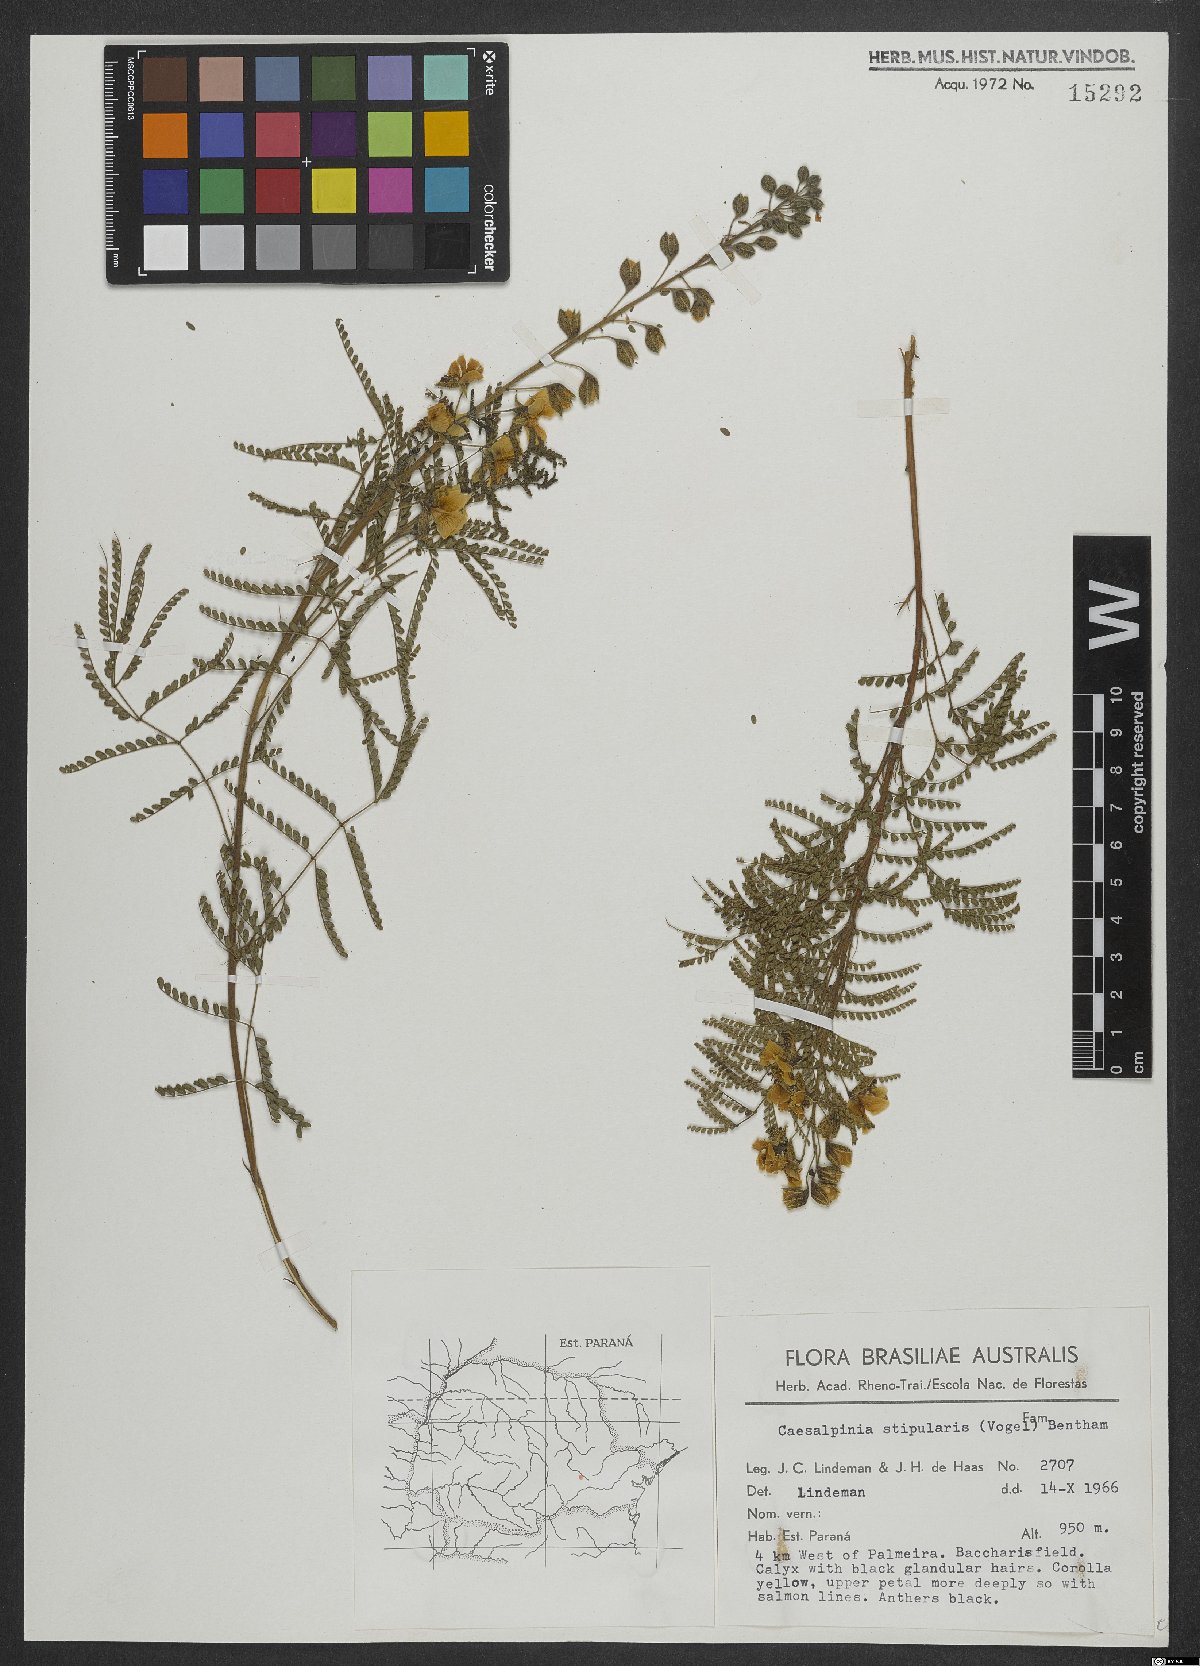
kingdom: Plantae
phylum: Tracheophyta
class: Magnoliopsida
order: Fabales
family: Fabaceae
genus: Pomaria
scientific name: Pomaria stipularis
